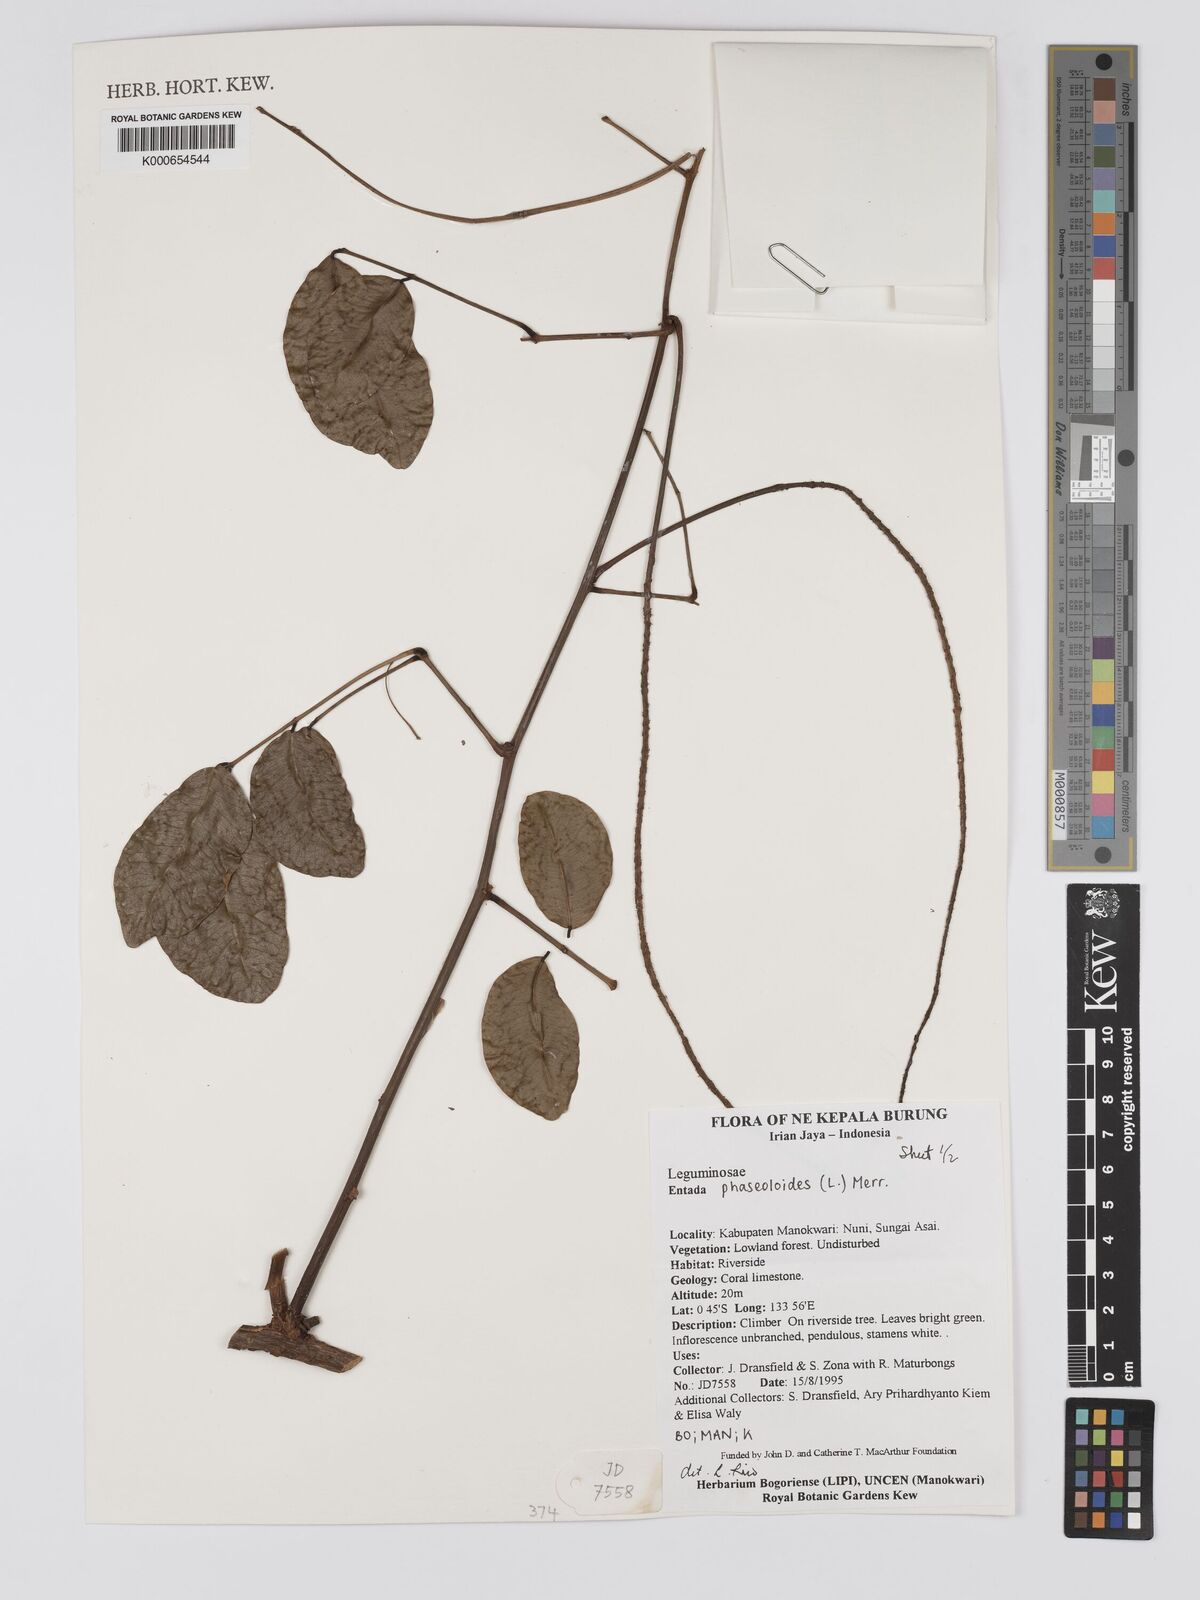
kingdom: Plantae
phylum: Tracheophyta
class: Magnoliopsida
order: Fabales
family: Fabaceae
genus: Entada
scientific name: Entada phaseoloides
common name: Matchbox-bean
